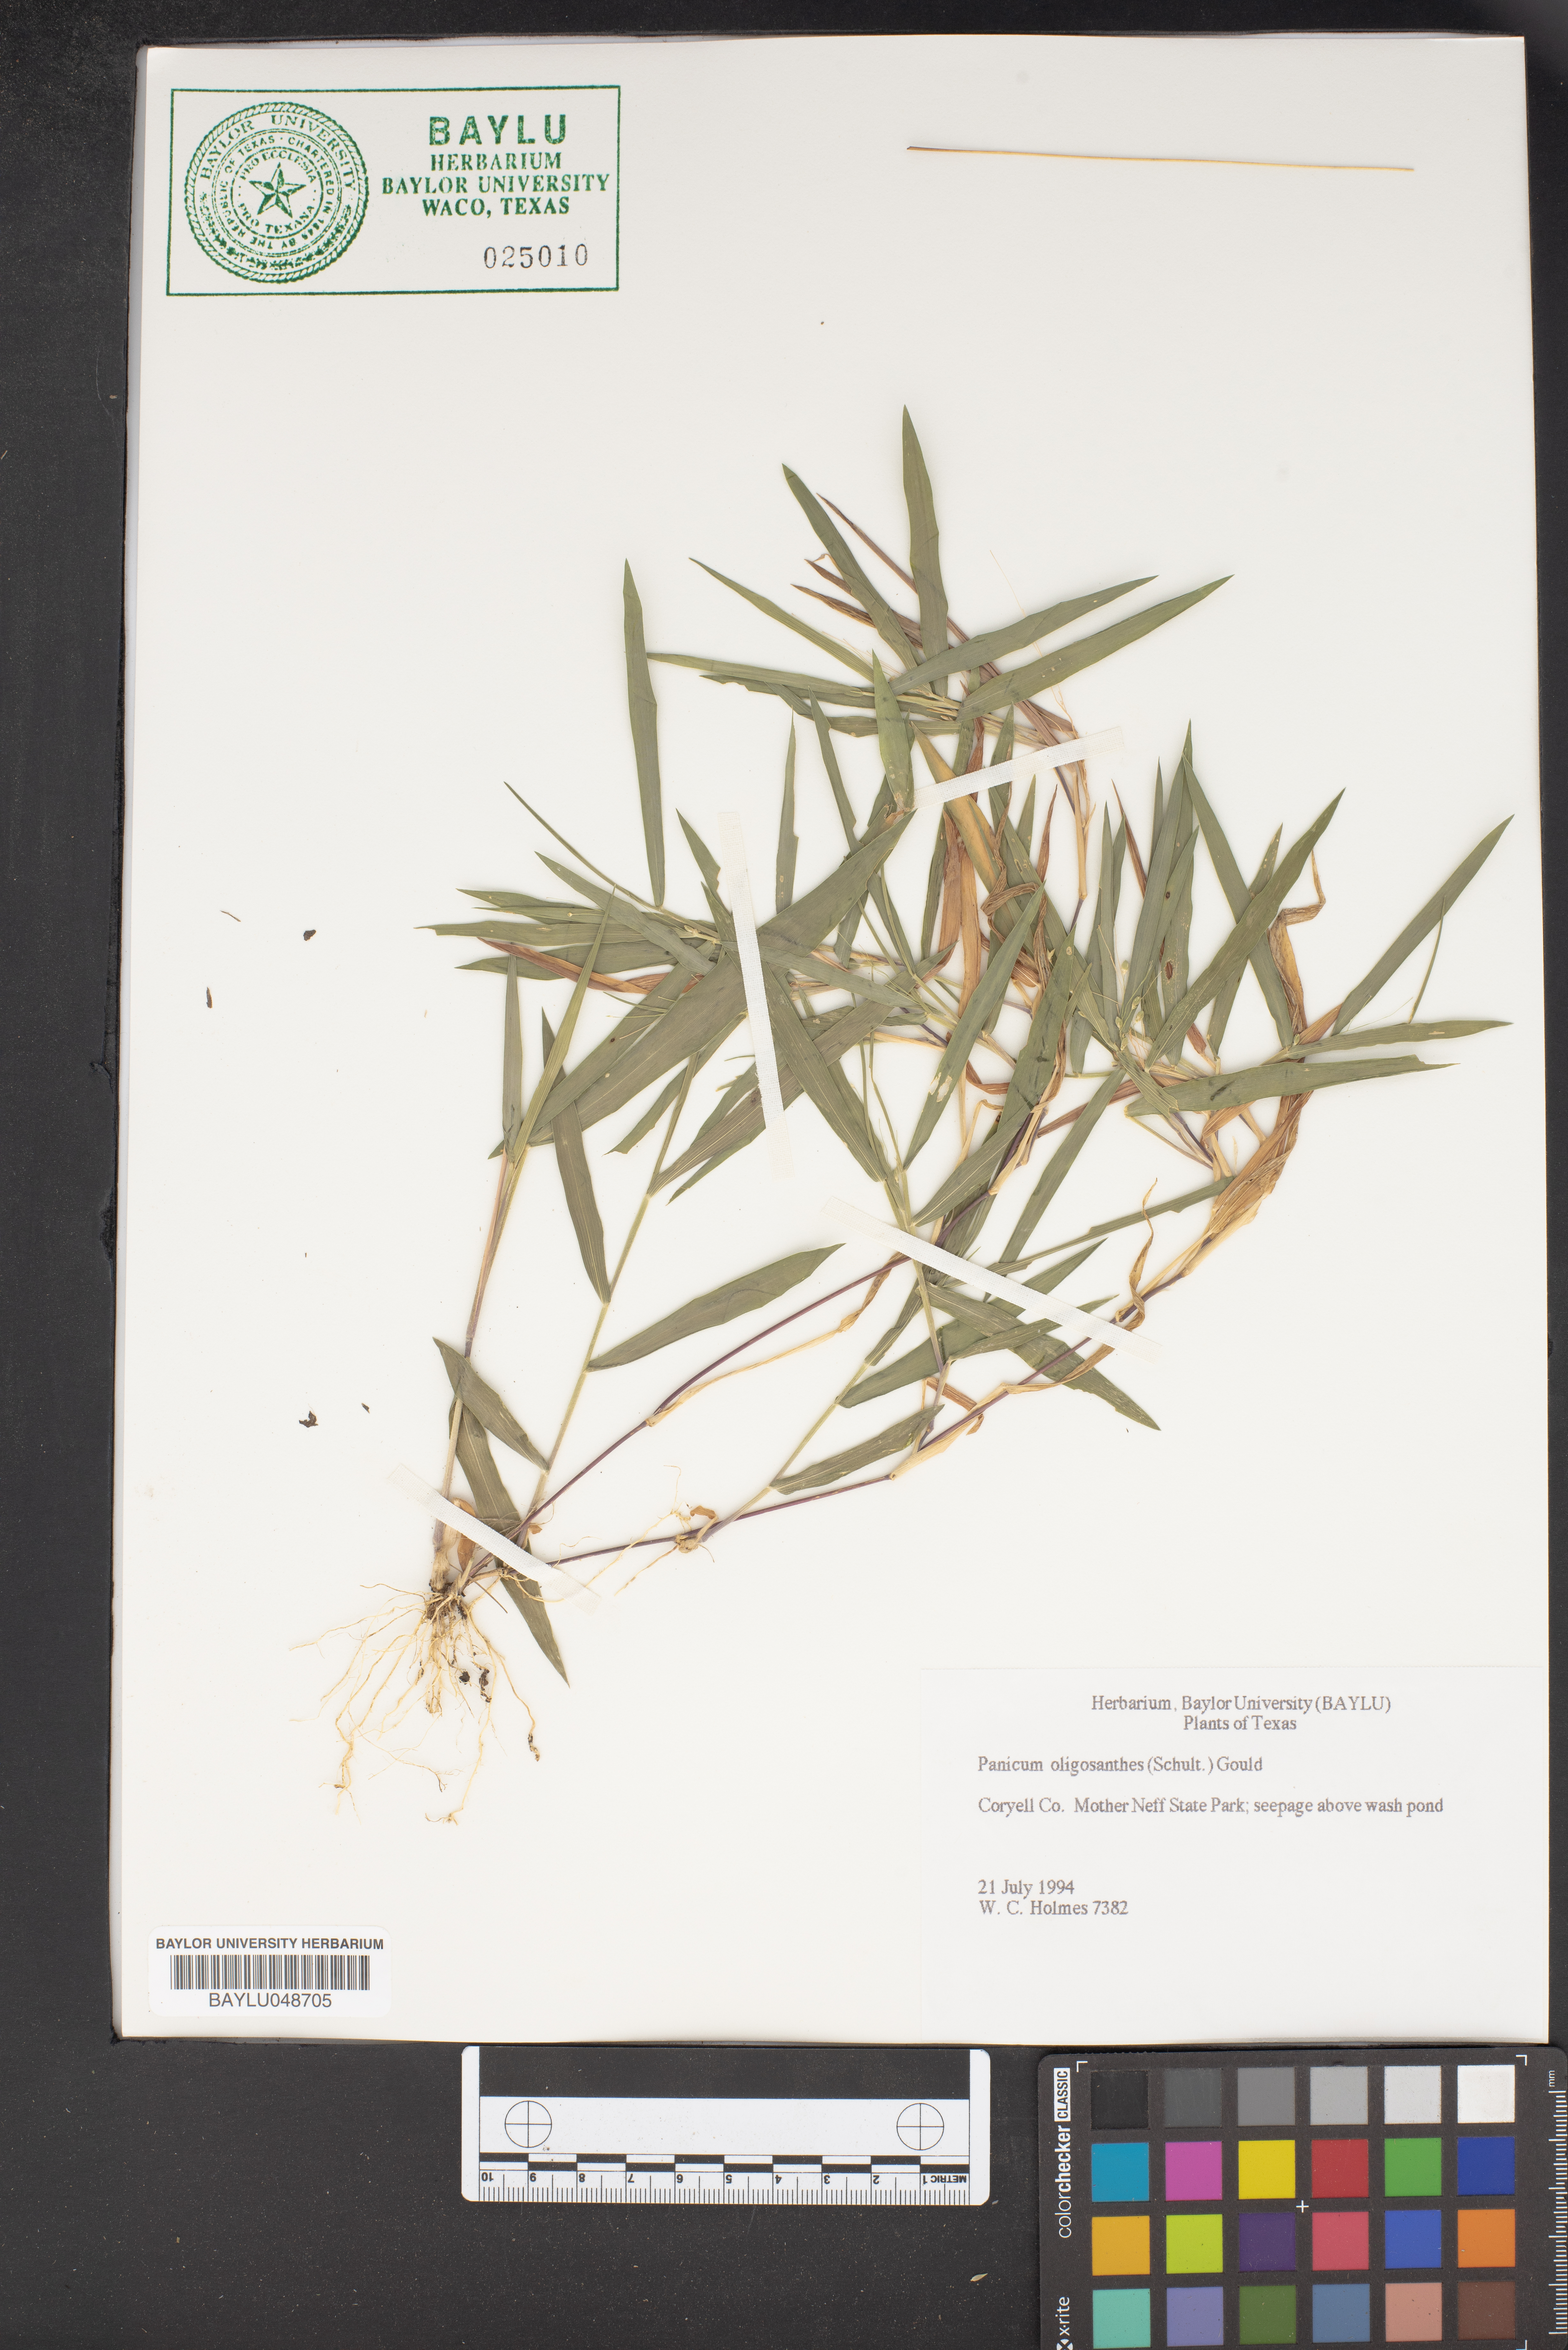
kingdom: Plantae
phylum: Tracheophyta
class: Liliopsida
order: Poales
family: Poaceae
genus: Dichanthelium
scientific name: Dichanthelium oligosanthes
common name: Few-anther obscuregrass
